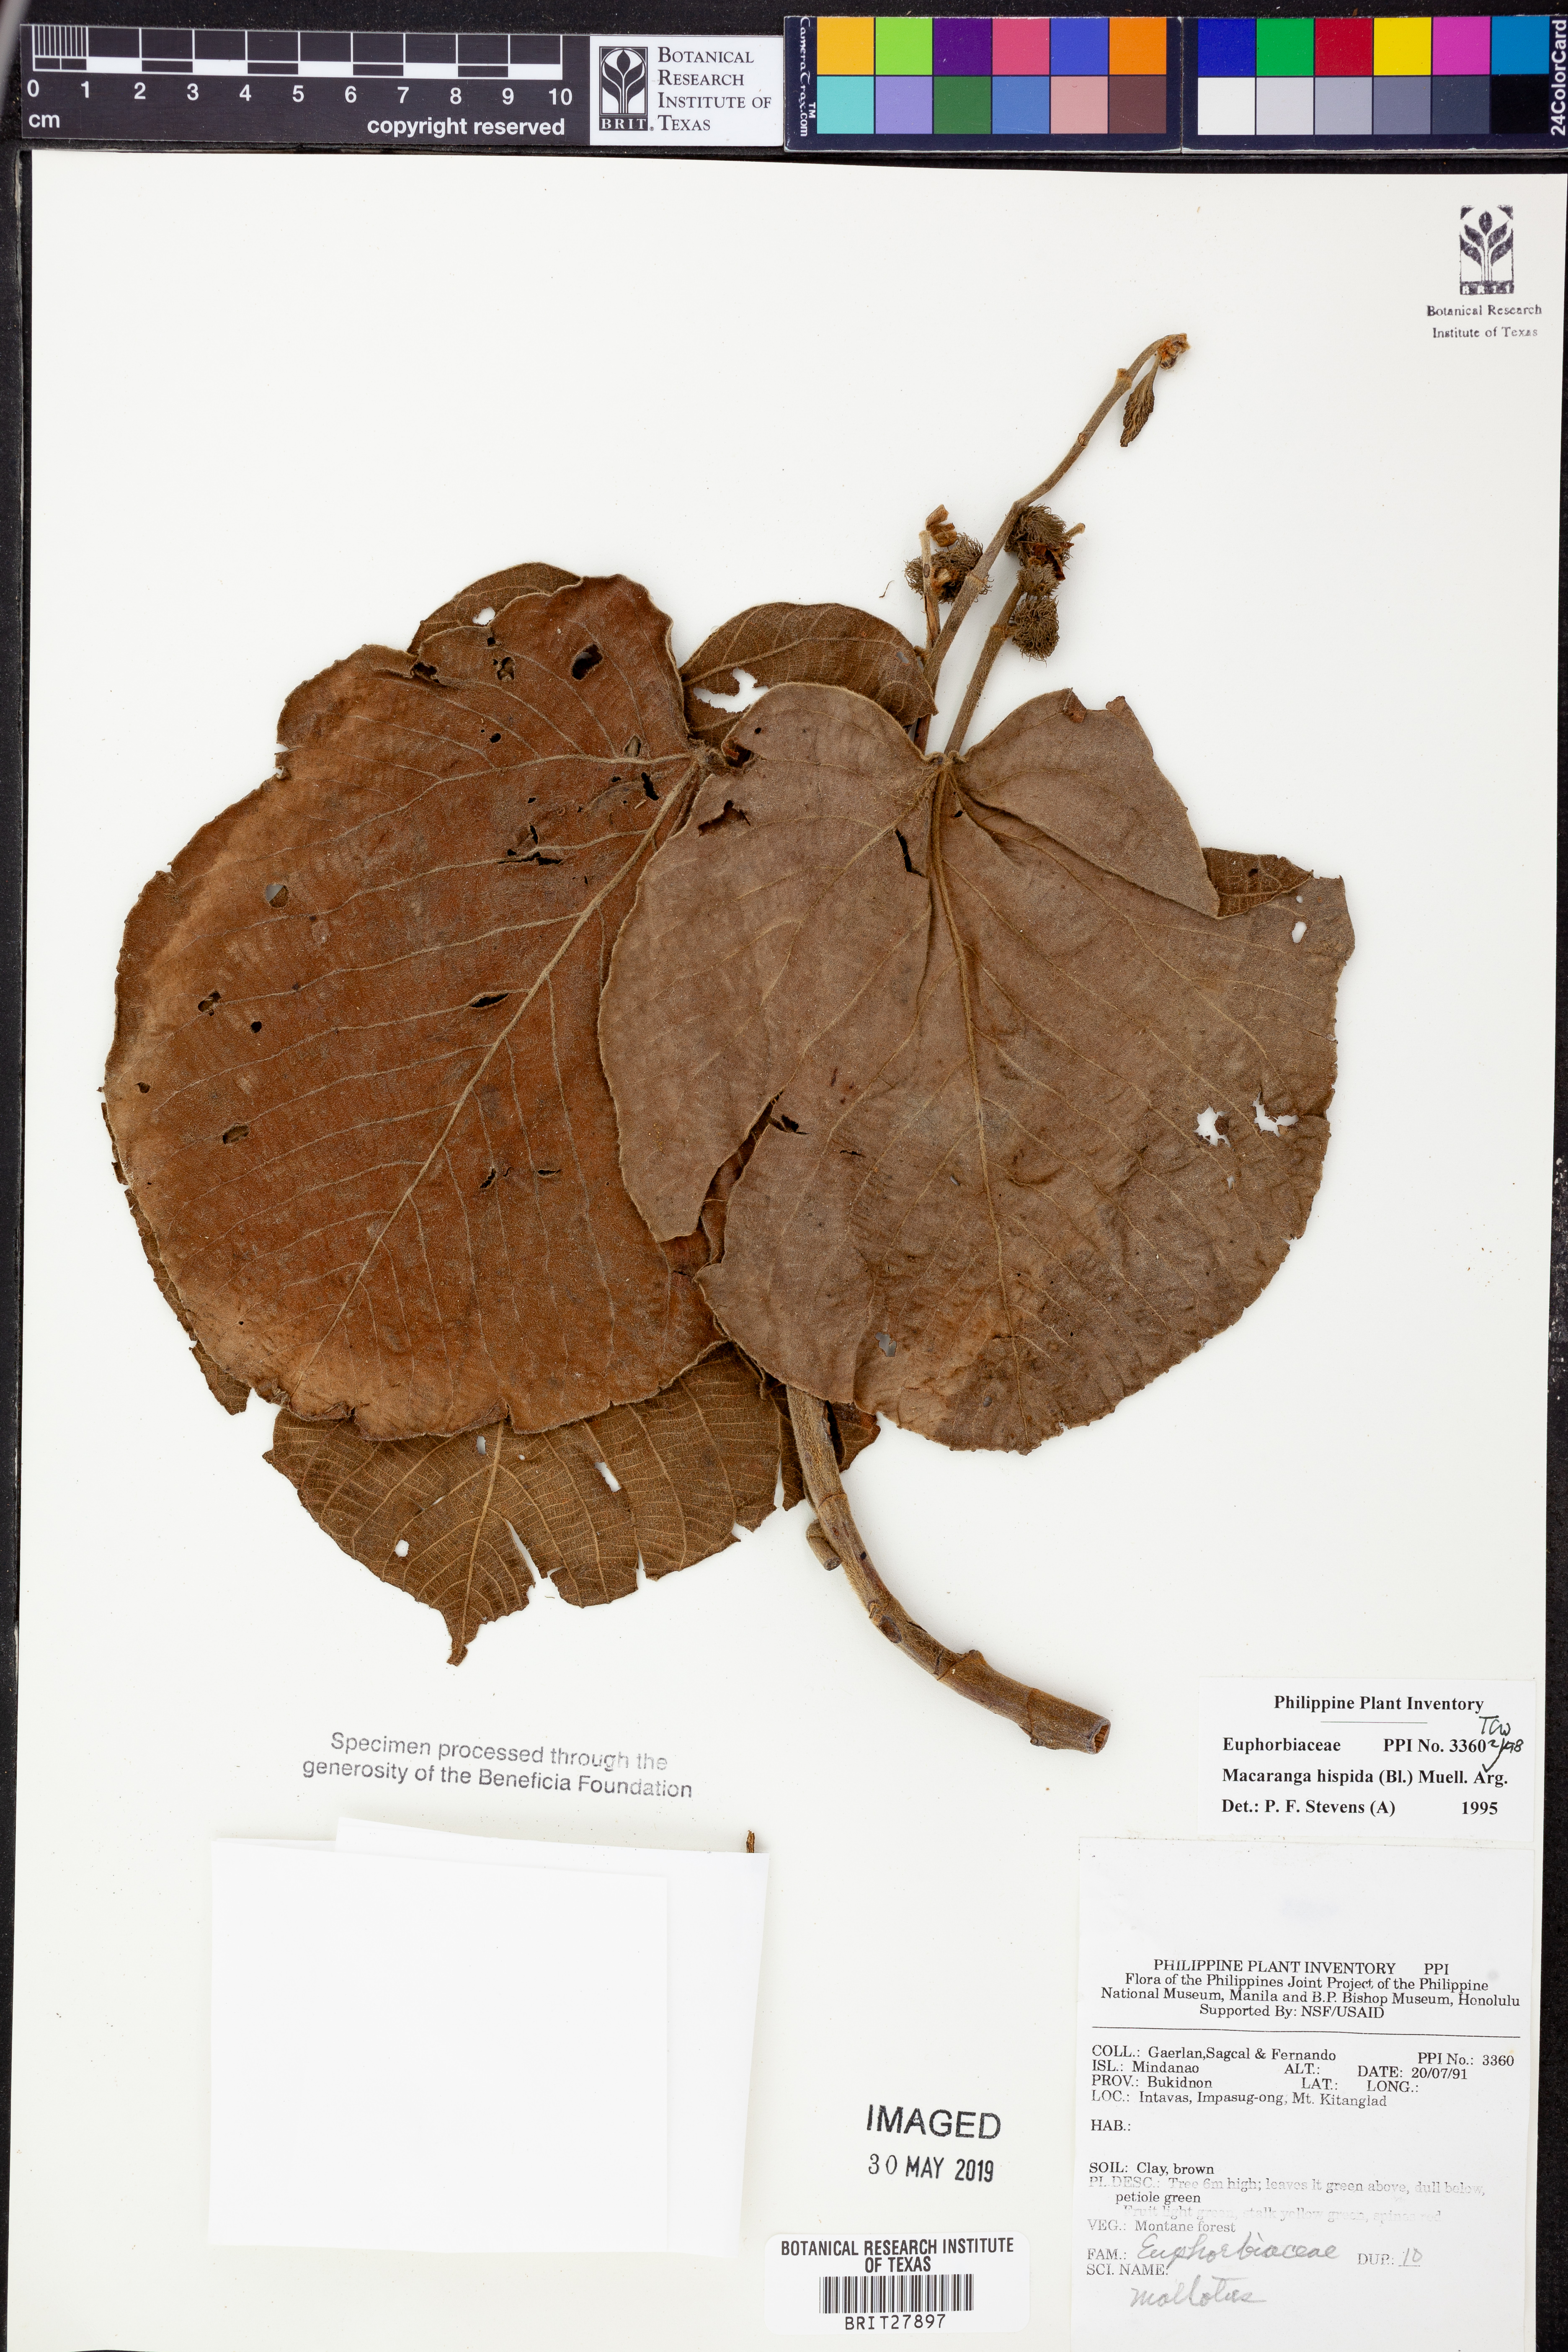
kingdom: Plantae
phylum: Tracheophyta
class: Magnoliopsida
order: Malpighiales
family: Euphorbiaceae
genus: Macaranga
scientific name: Macaranga hispida
